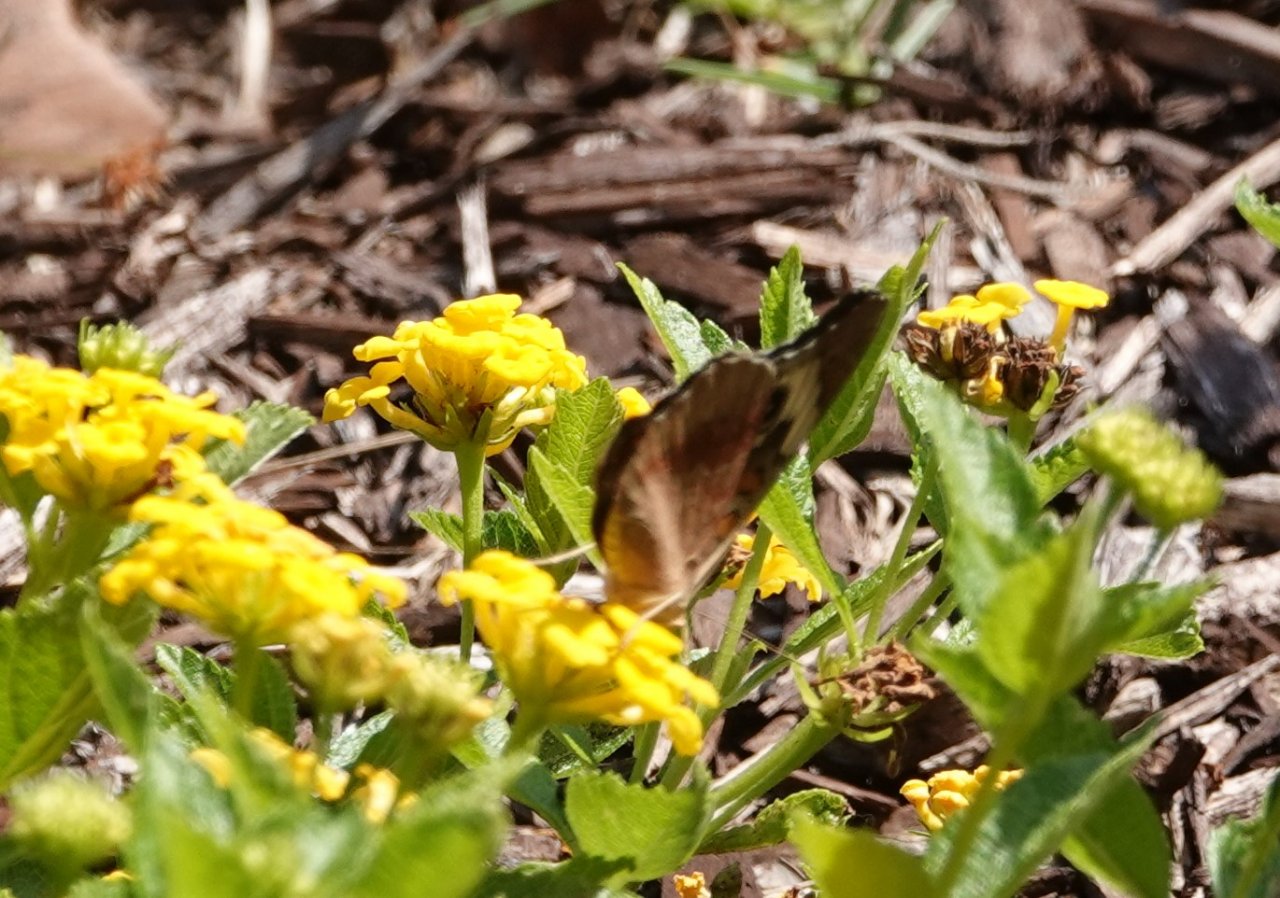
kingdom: Animalia
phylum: Arthropoda
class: Insecta
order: Lepidoptera
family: Nymphalidae
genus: Junonia
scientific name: Junonia coenia
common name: Common Buckeye
